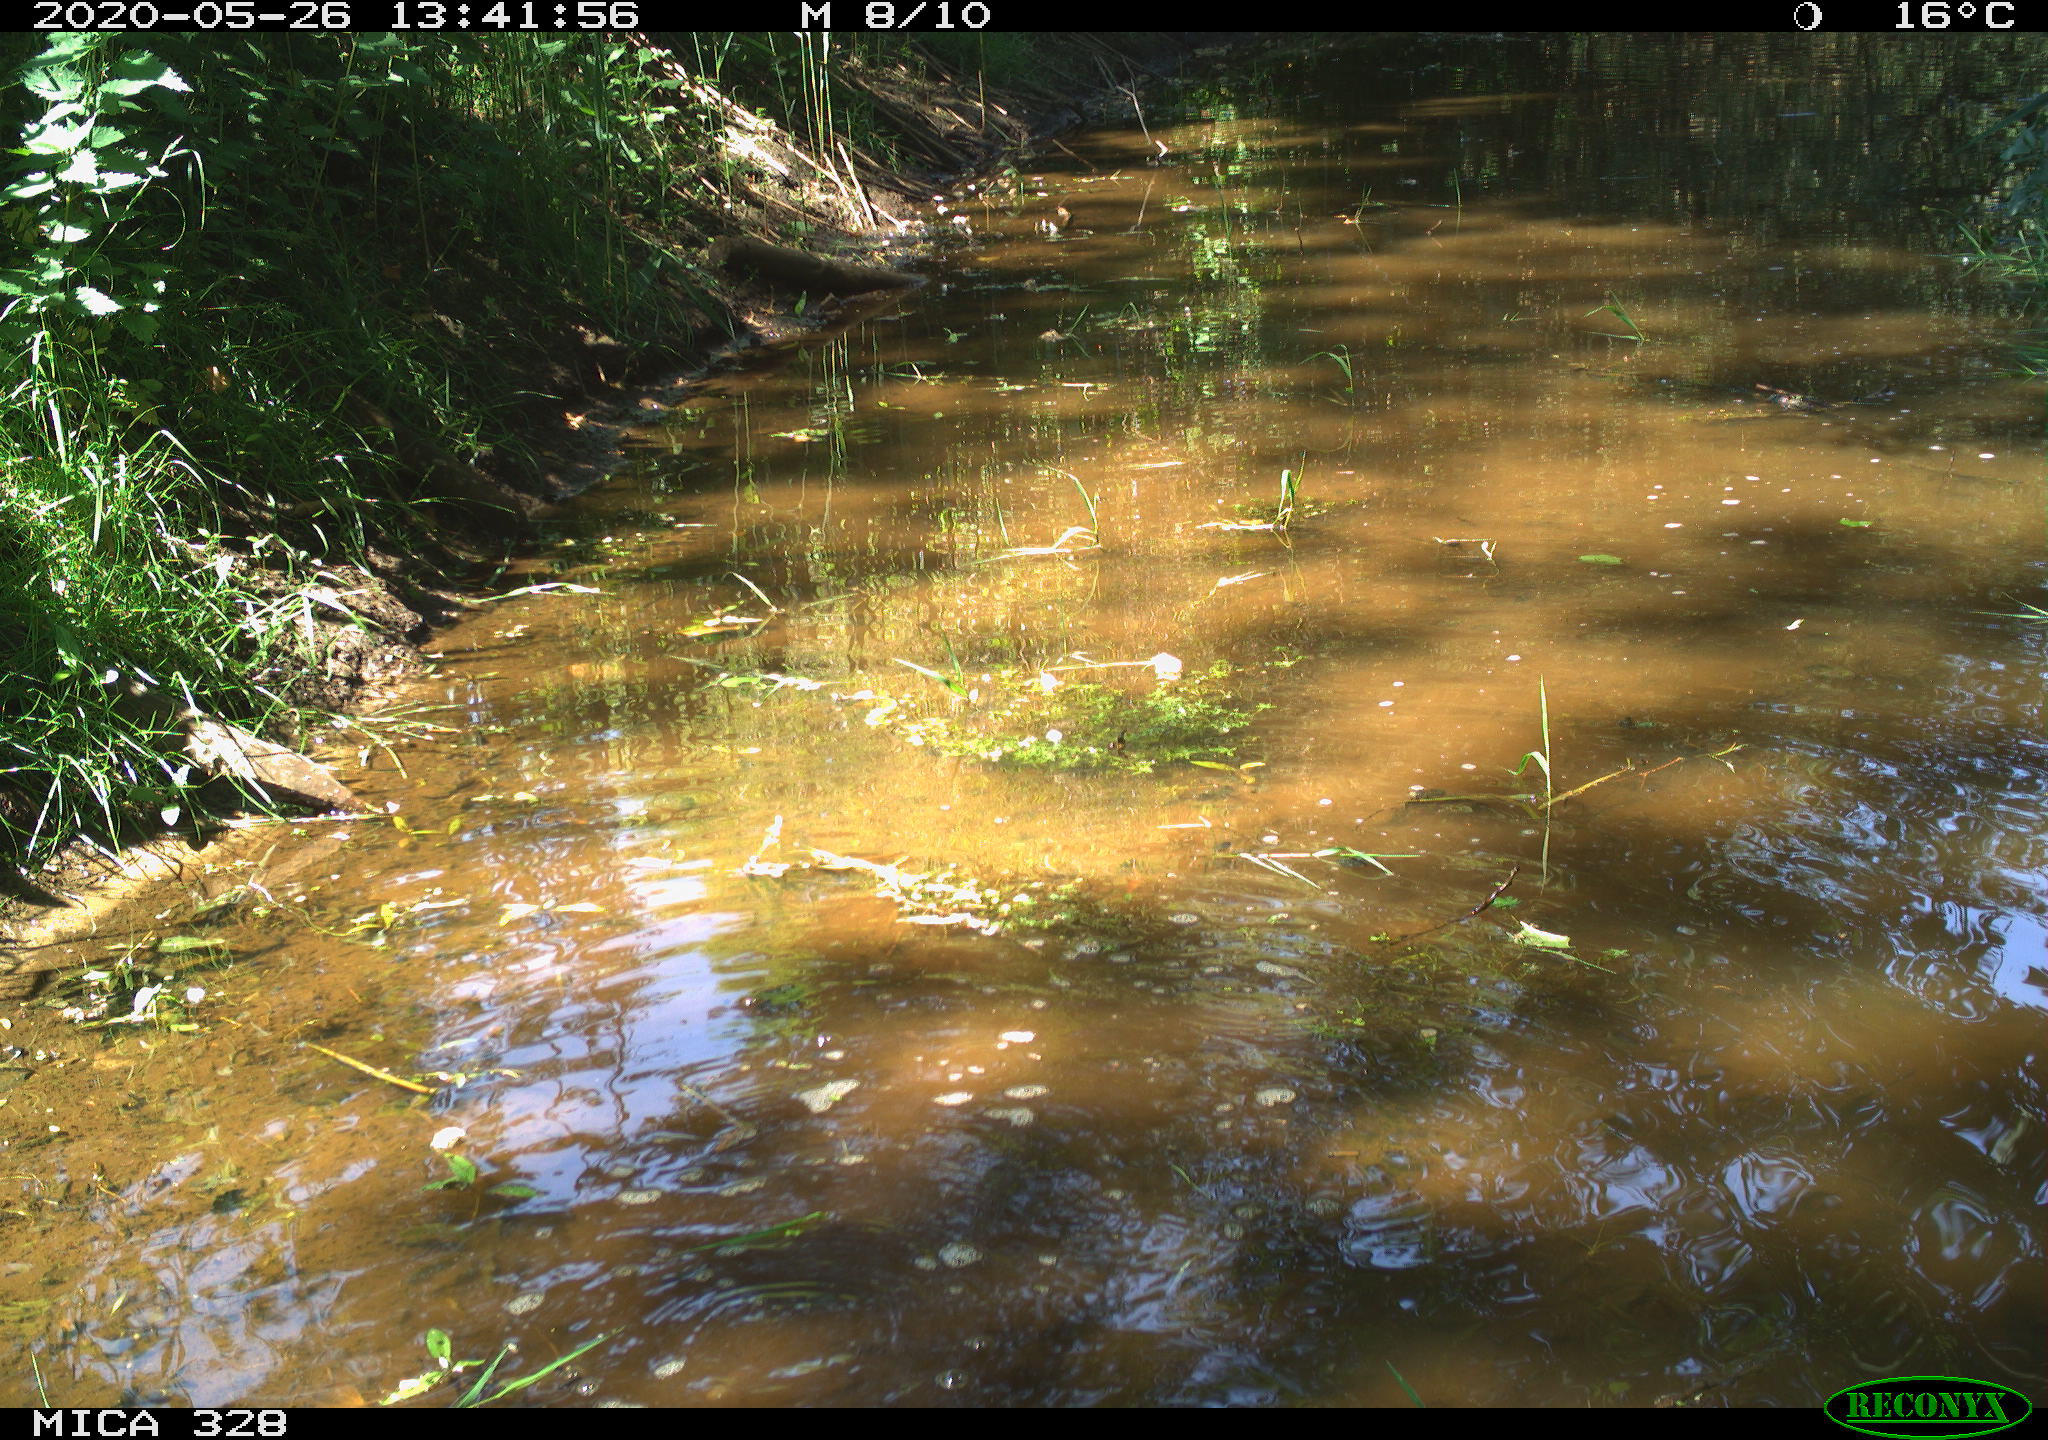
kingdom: Animalia
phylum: Chordata
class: Aves
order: Pelecaniformes
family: Ardeidae
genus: Ardea
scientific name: Ardea cinerea
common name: Grey heron
